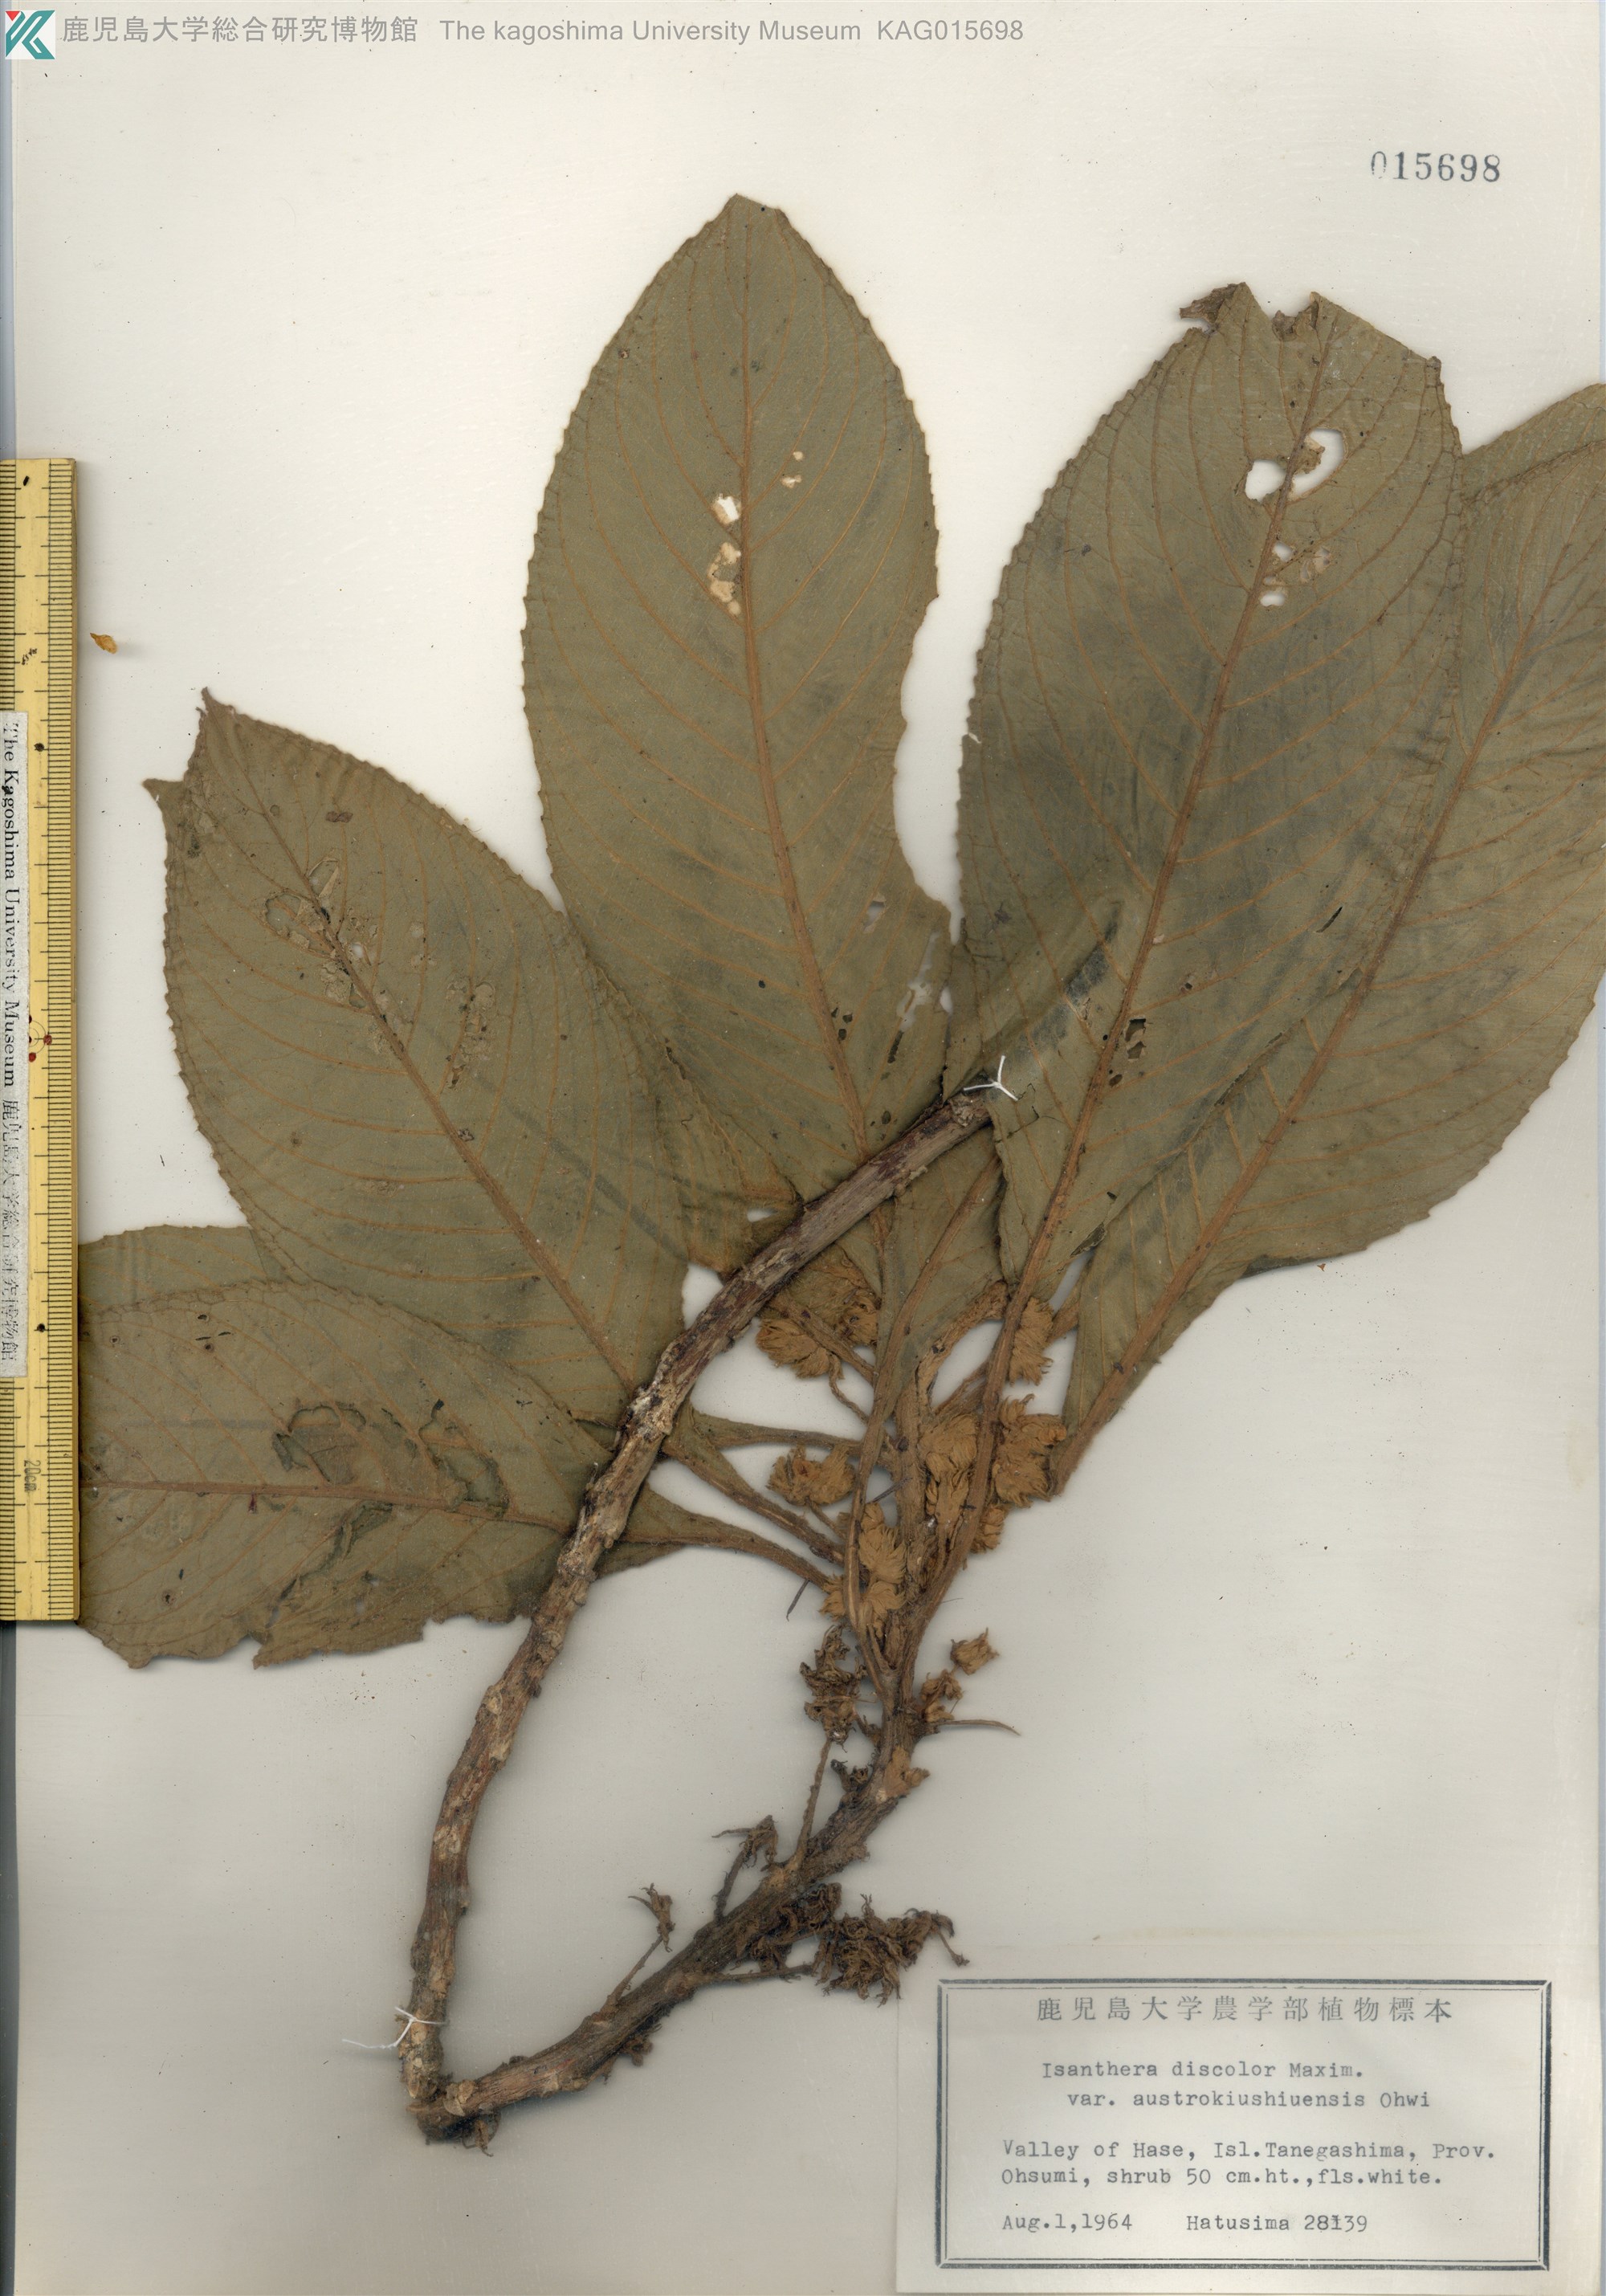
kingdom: Plantae
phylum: Tracheophyta
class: Magnoliopsida
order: Lamiales
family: Gesneriaceae
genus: Rhynchotechum
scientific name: Rhynchotechum discolor
